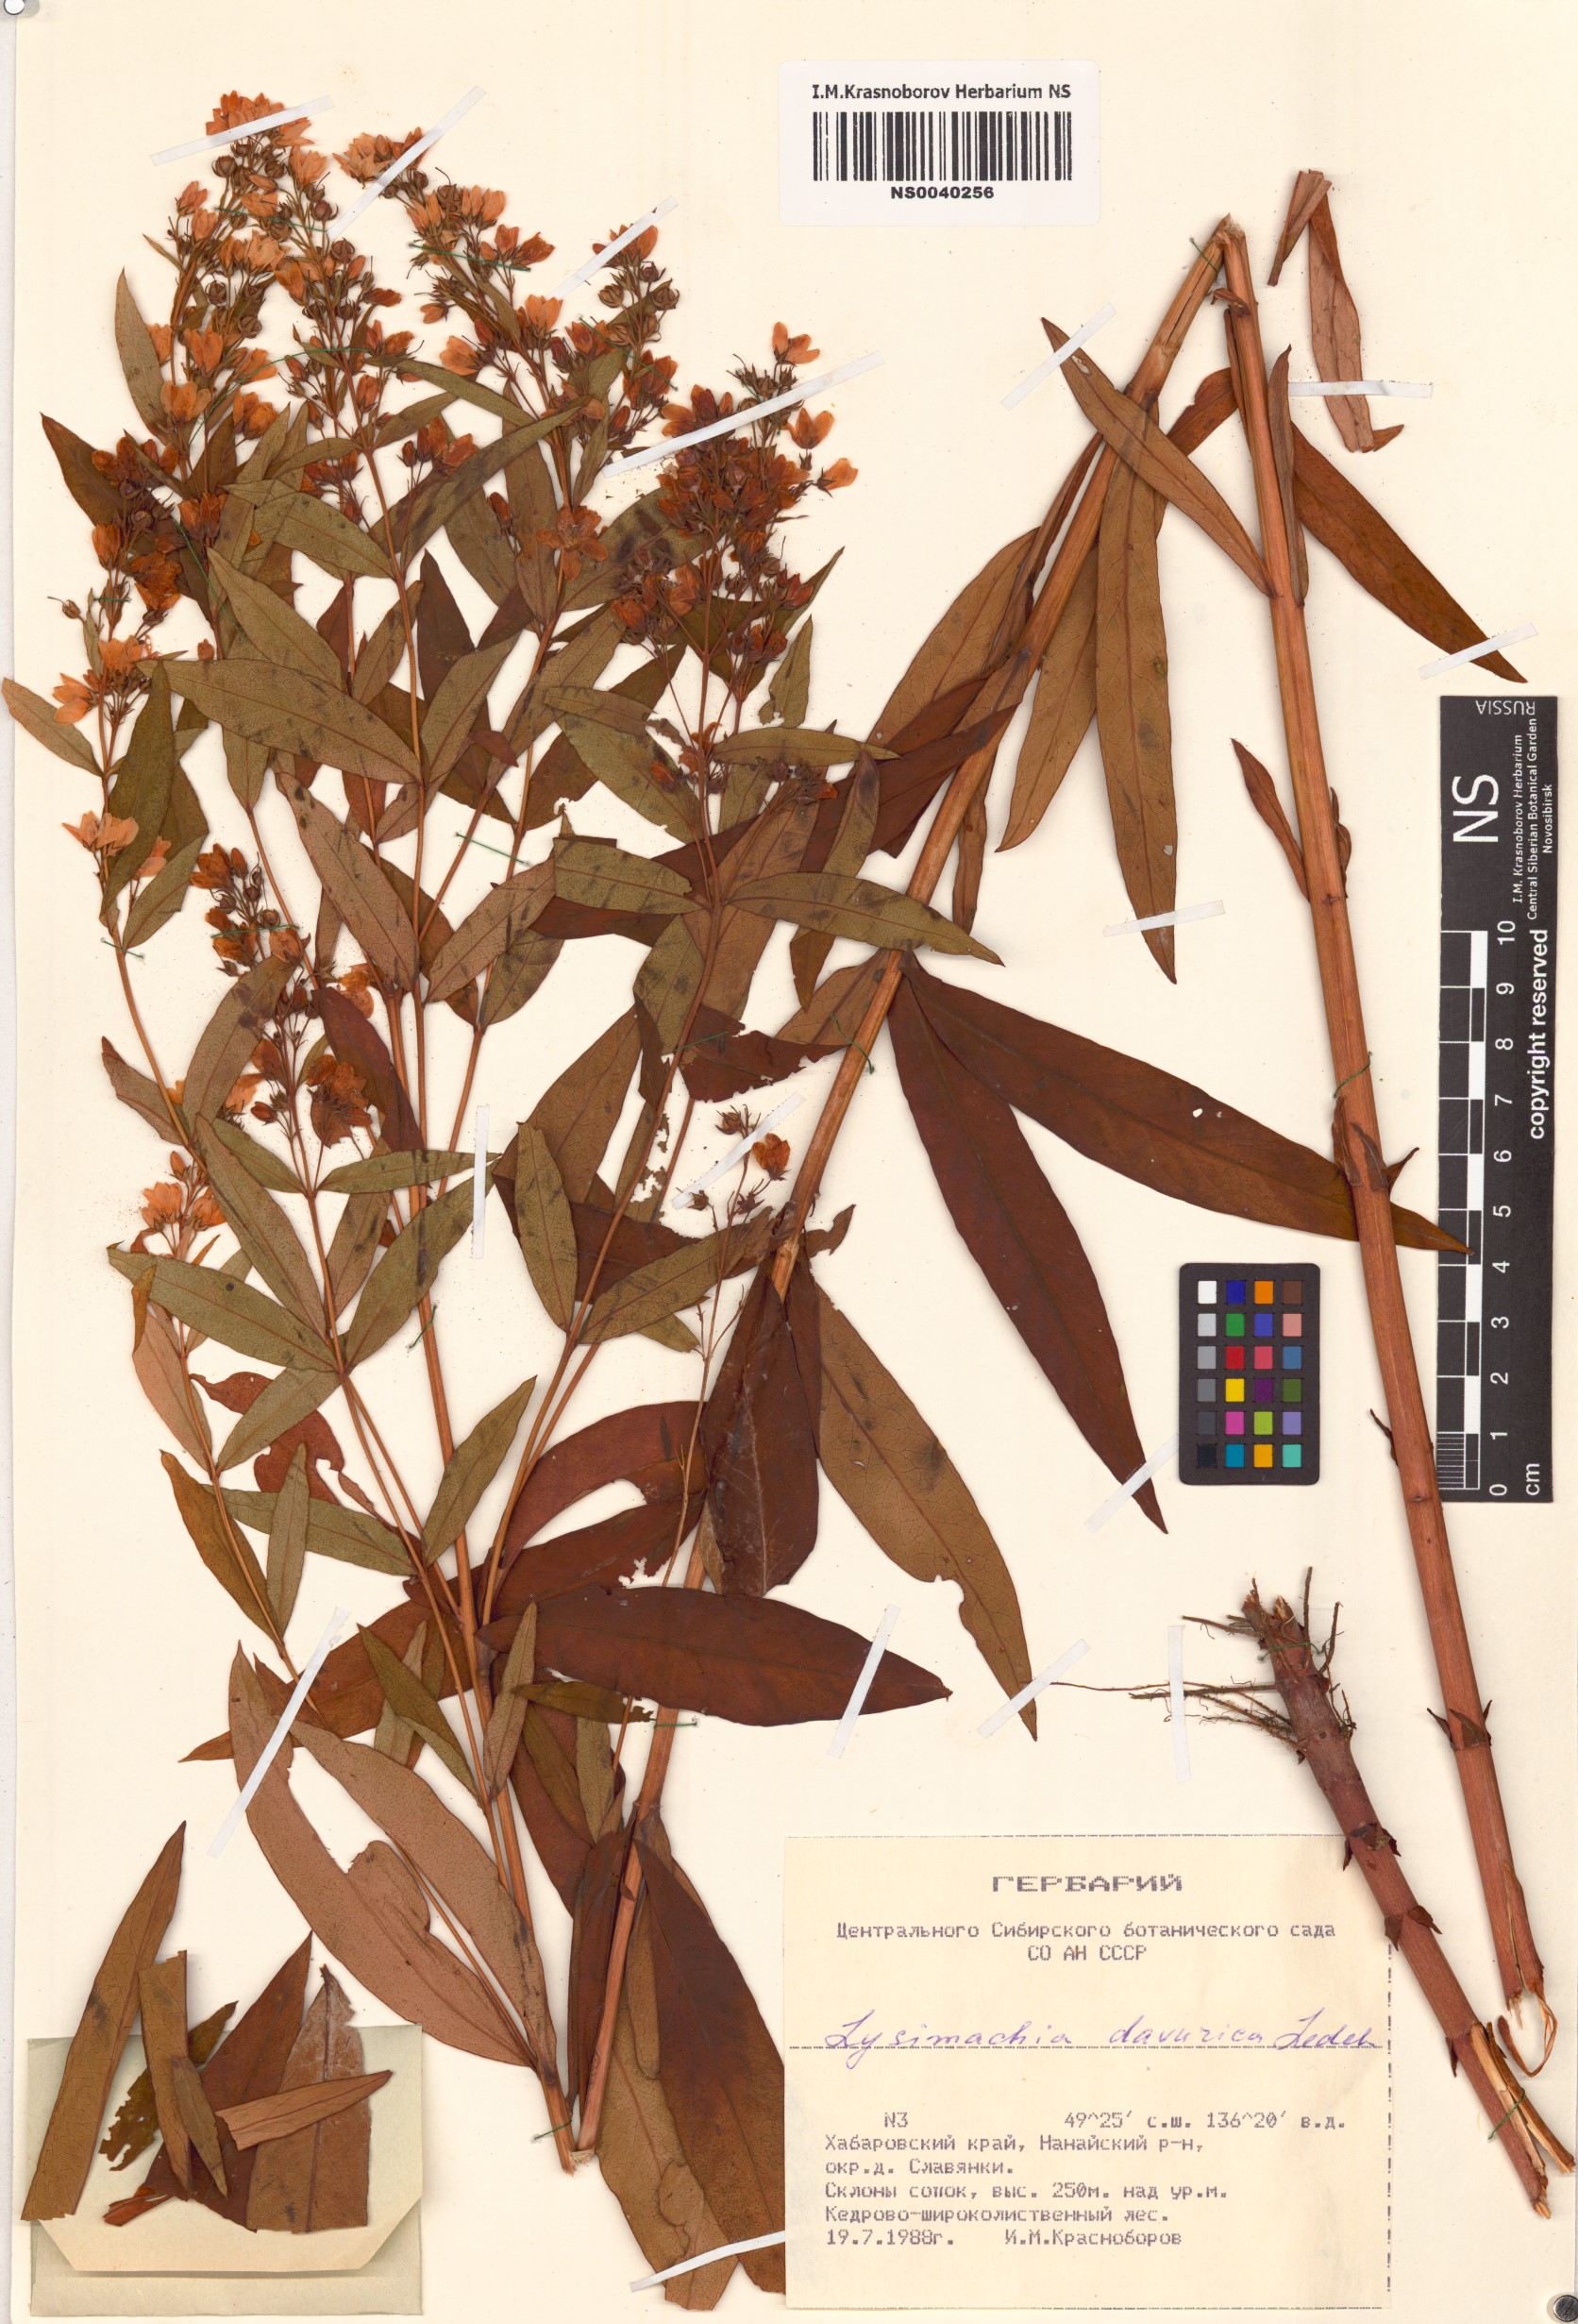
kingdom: Plantae
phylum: Tracheophyta
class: Magnoliopsida
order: Ericales
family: Primulaceae
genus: Lysimachia
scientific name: Lysimachia davurica
